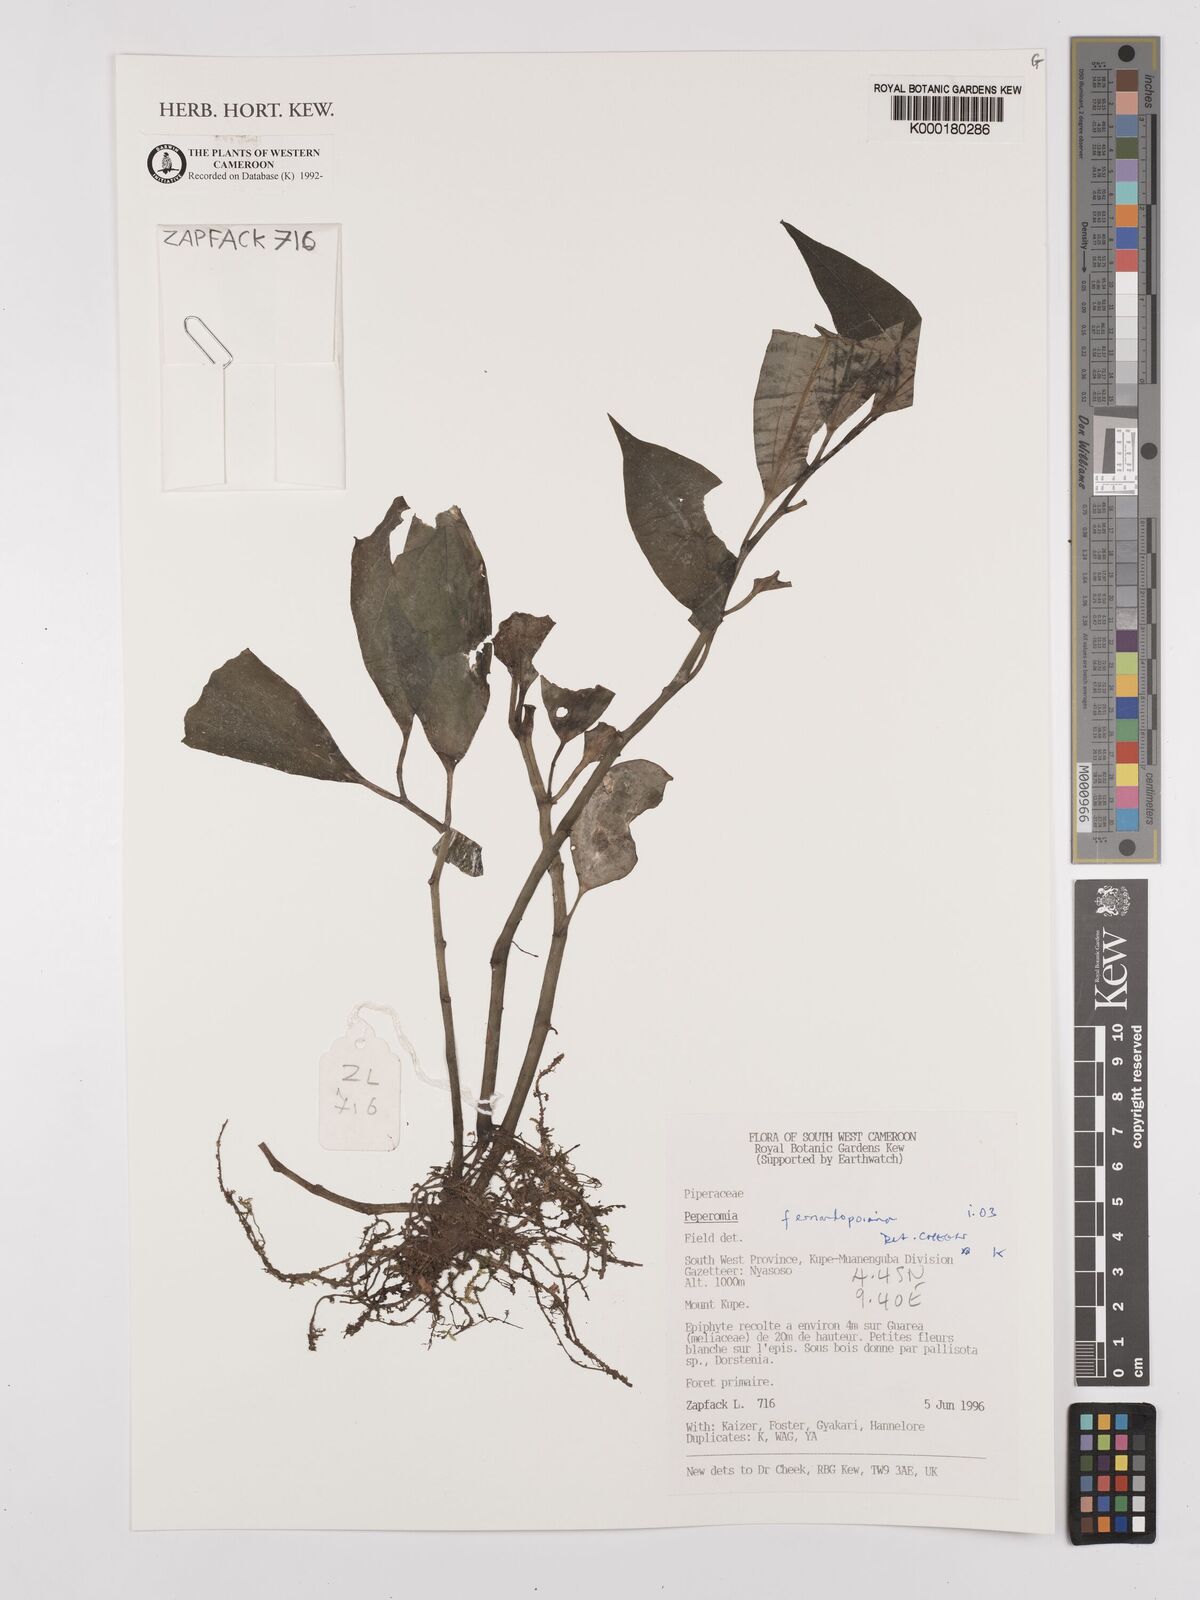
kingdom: Plantae
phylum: Tracheophyta
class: Magnoliopsida
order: Piperales
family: Piperaceae
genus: Peperomia
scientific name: Peperomia fernandopoiana
